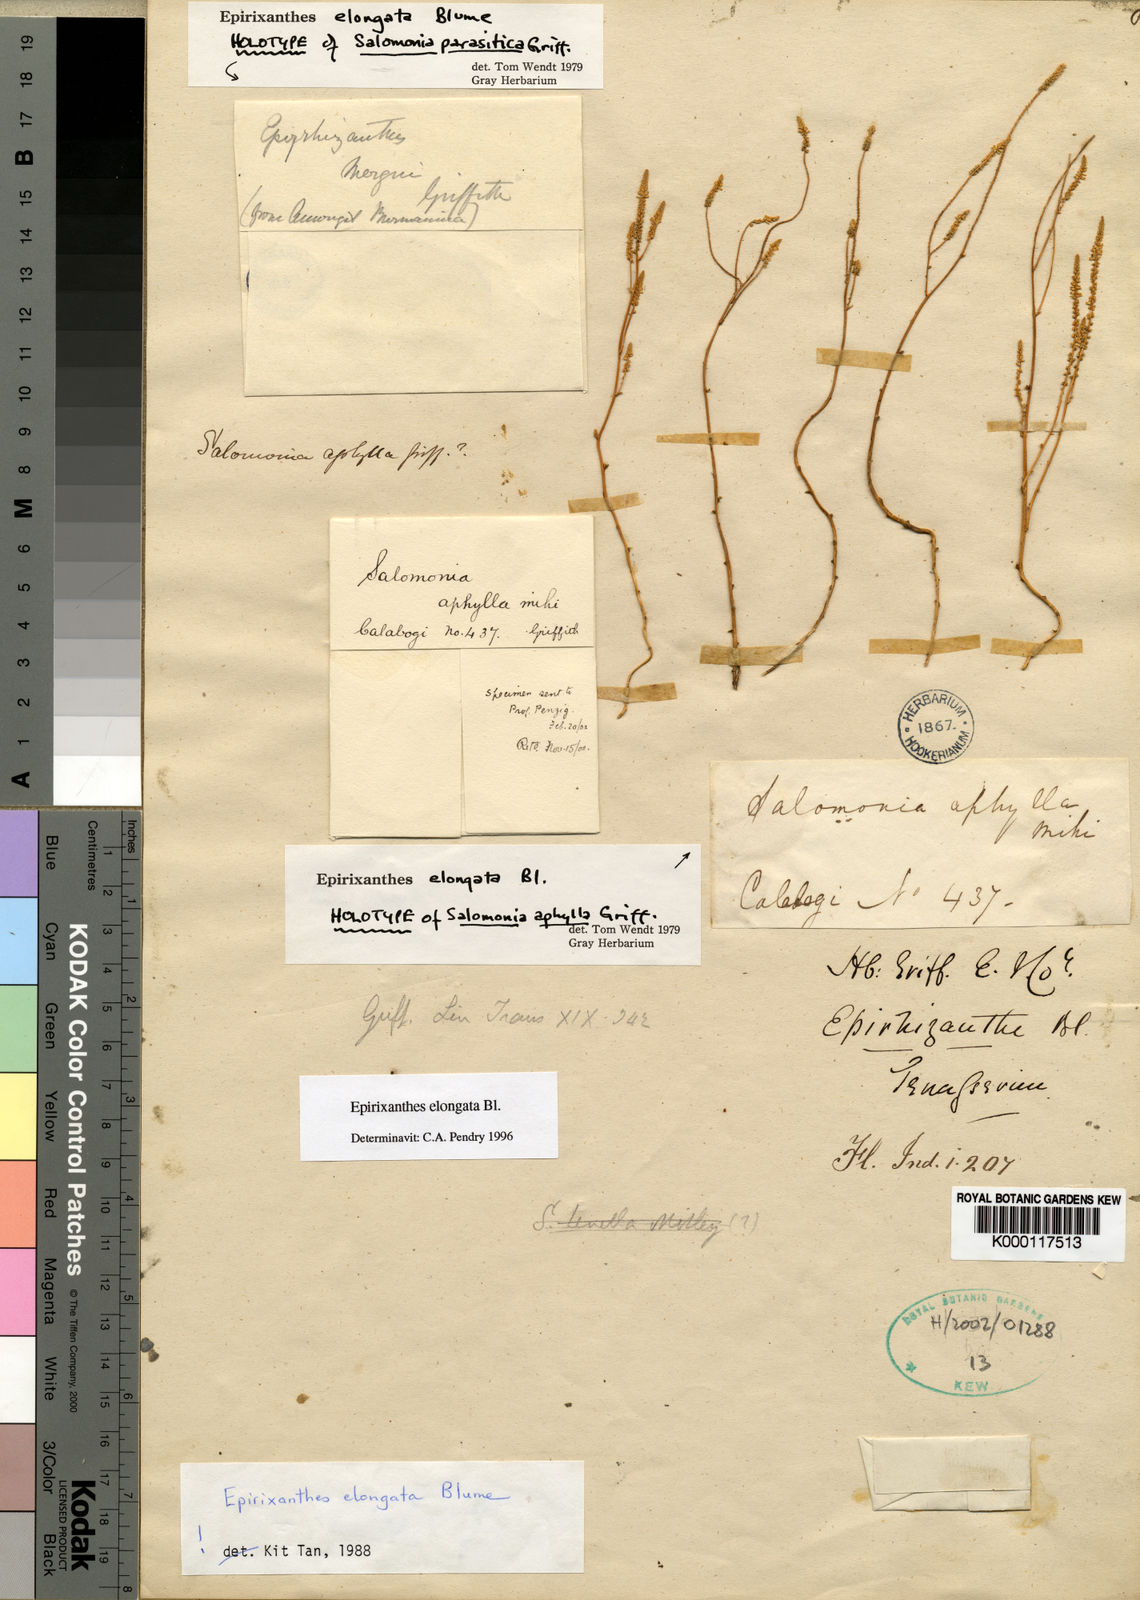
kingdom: Plantae
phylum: Tracheophyta
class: Magnoliopsida
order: Fabales
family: Polygalaceae
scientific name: Polygalaceae
